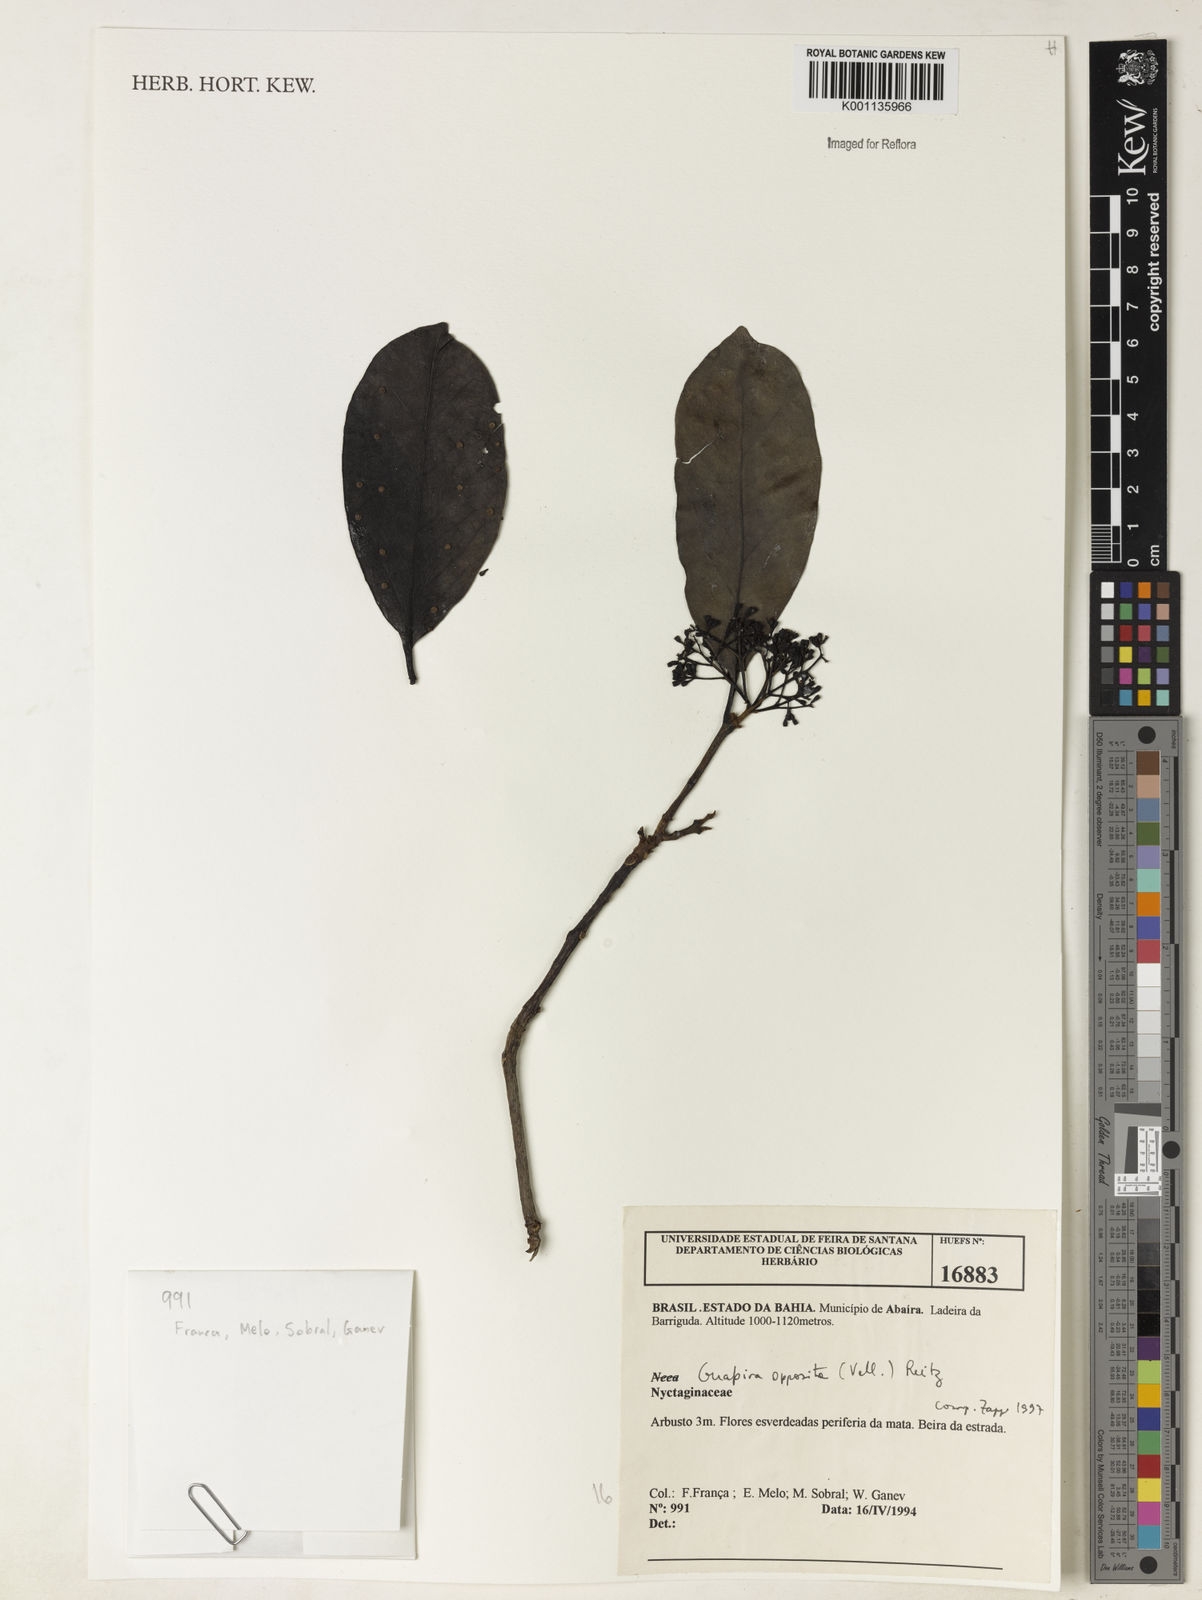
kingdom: Plantae
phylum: Tracheophyta
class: Magnoliopsida
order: Caryophyllales
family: Nyctaginaceae
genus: Guapira
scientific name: Guapira opposita
